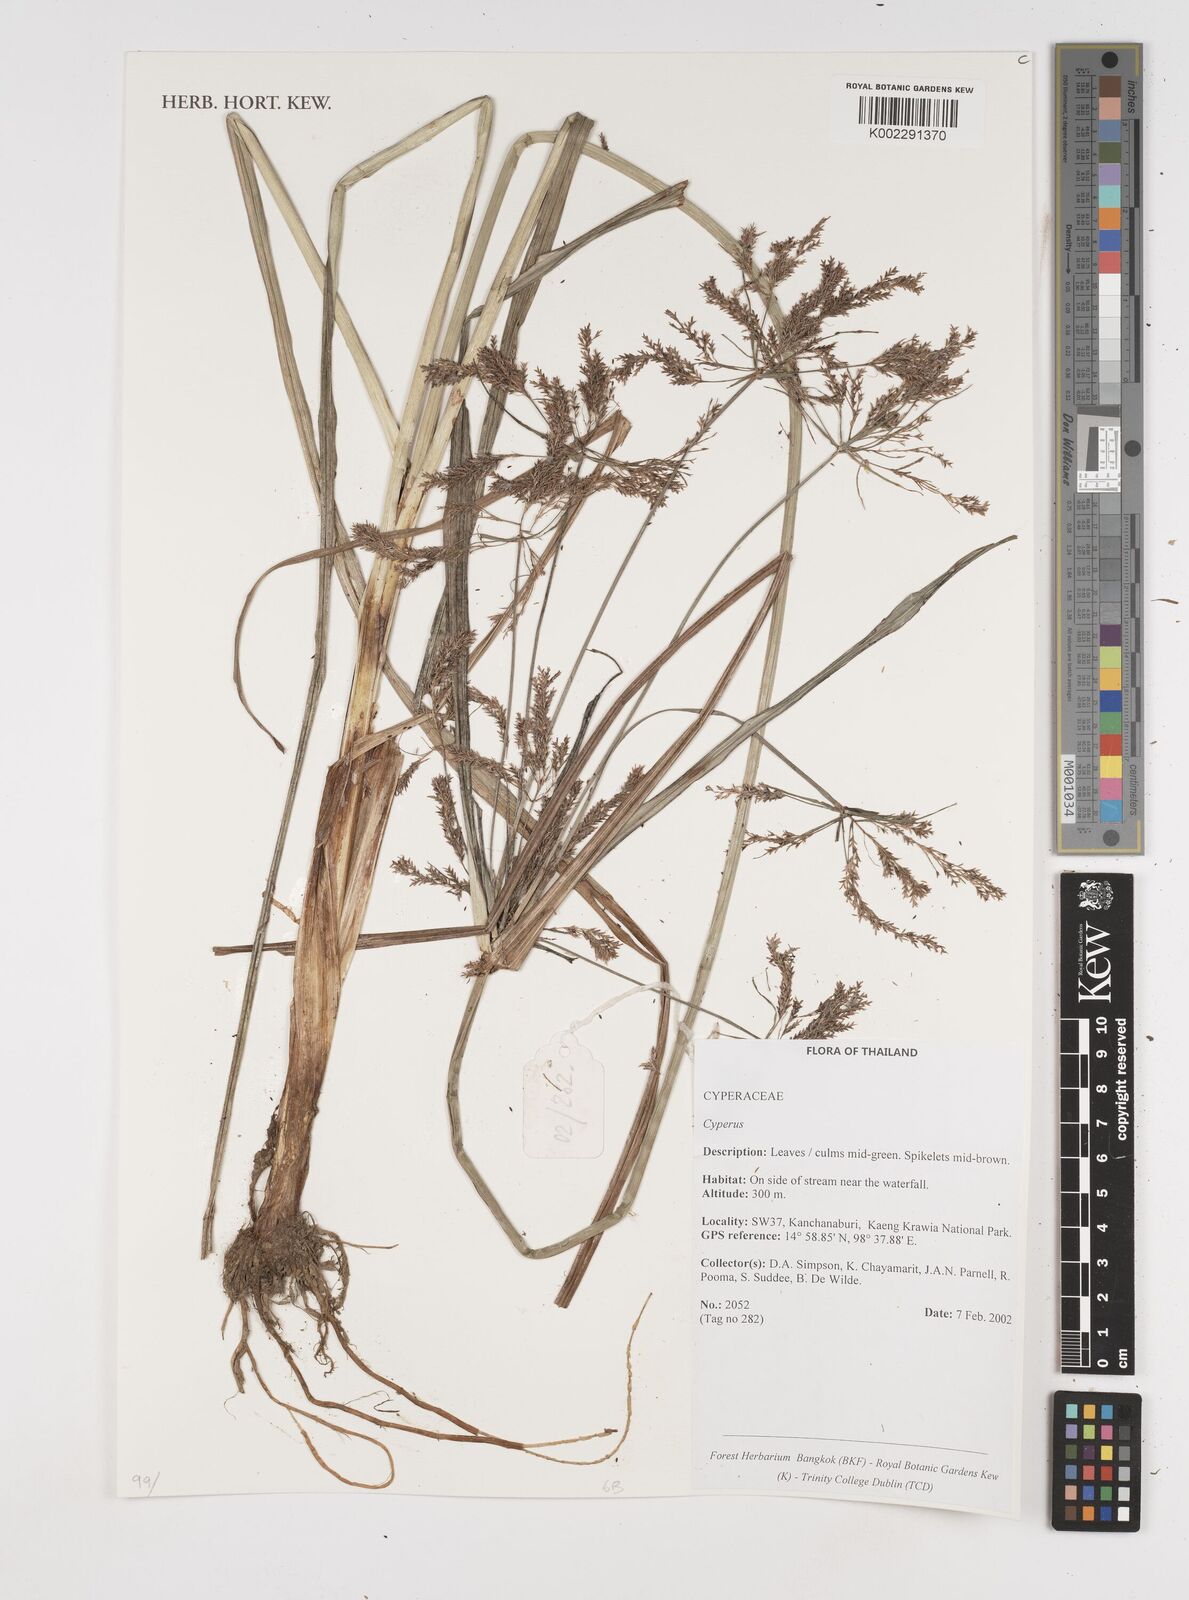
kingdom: Plantae
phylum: Tracheophyta
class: Liliopsida
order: Poales
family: Cyperaceae
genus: Cyperus
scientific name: Cyperus
